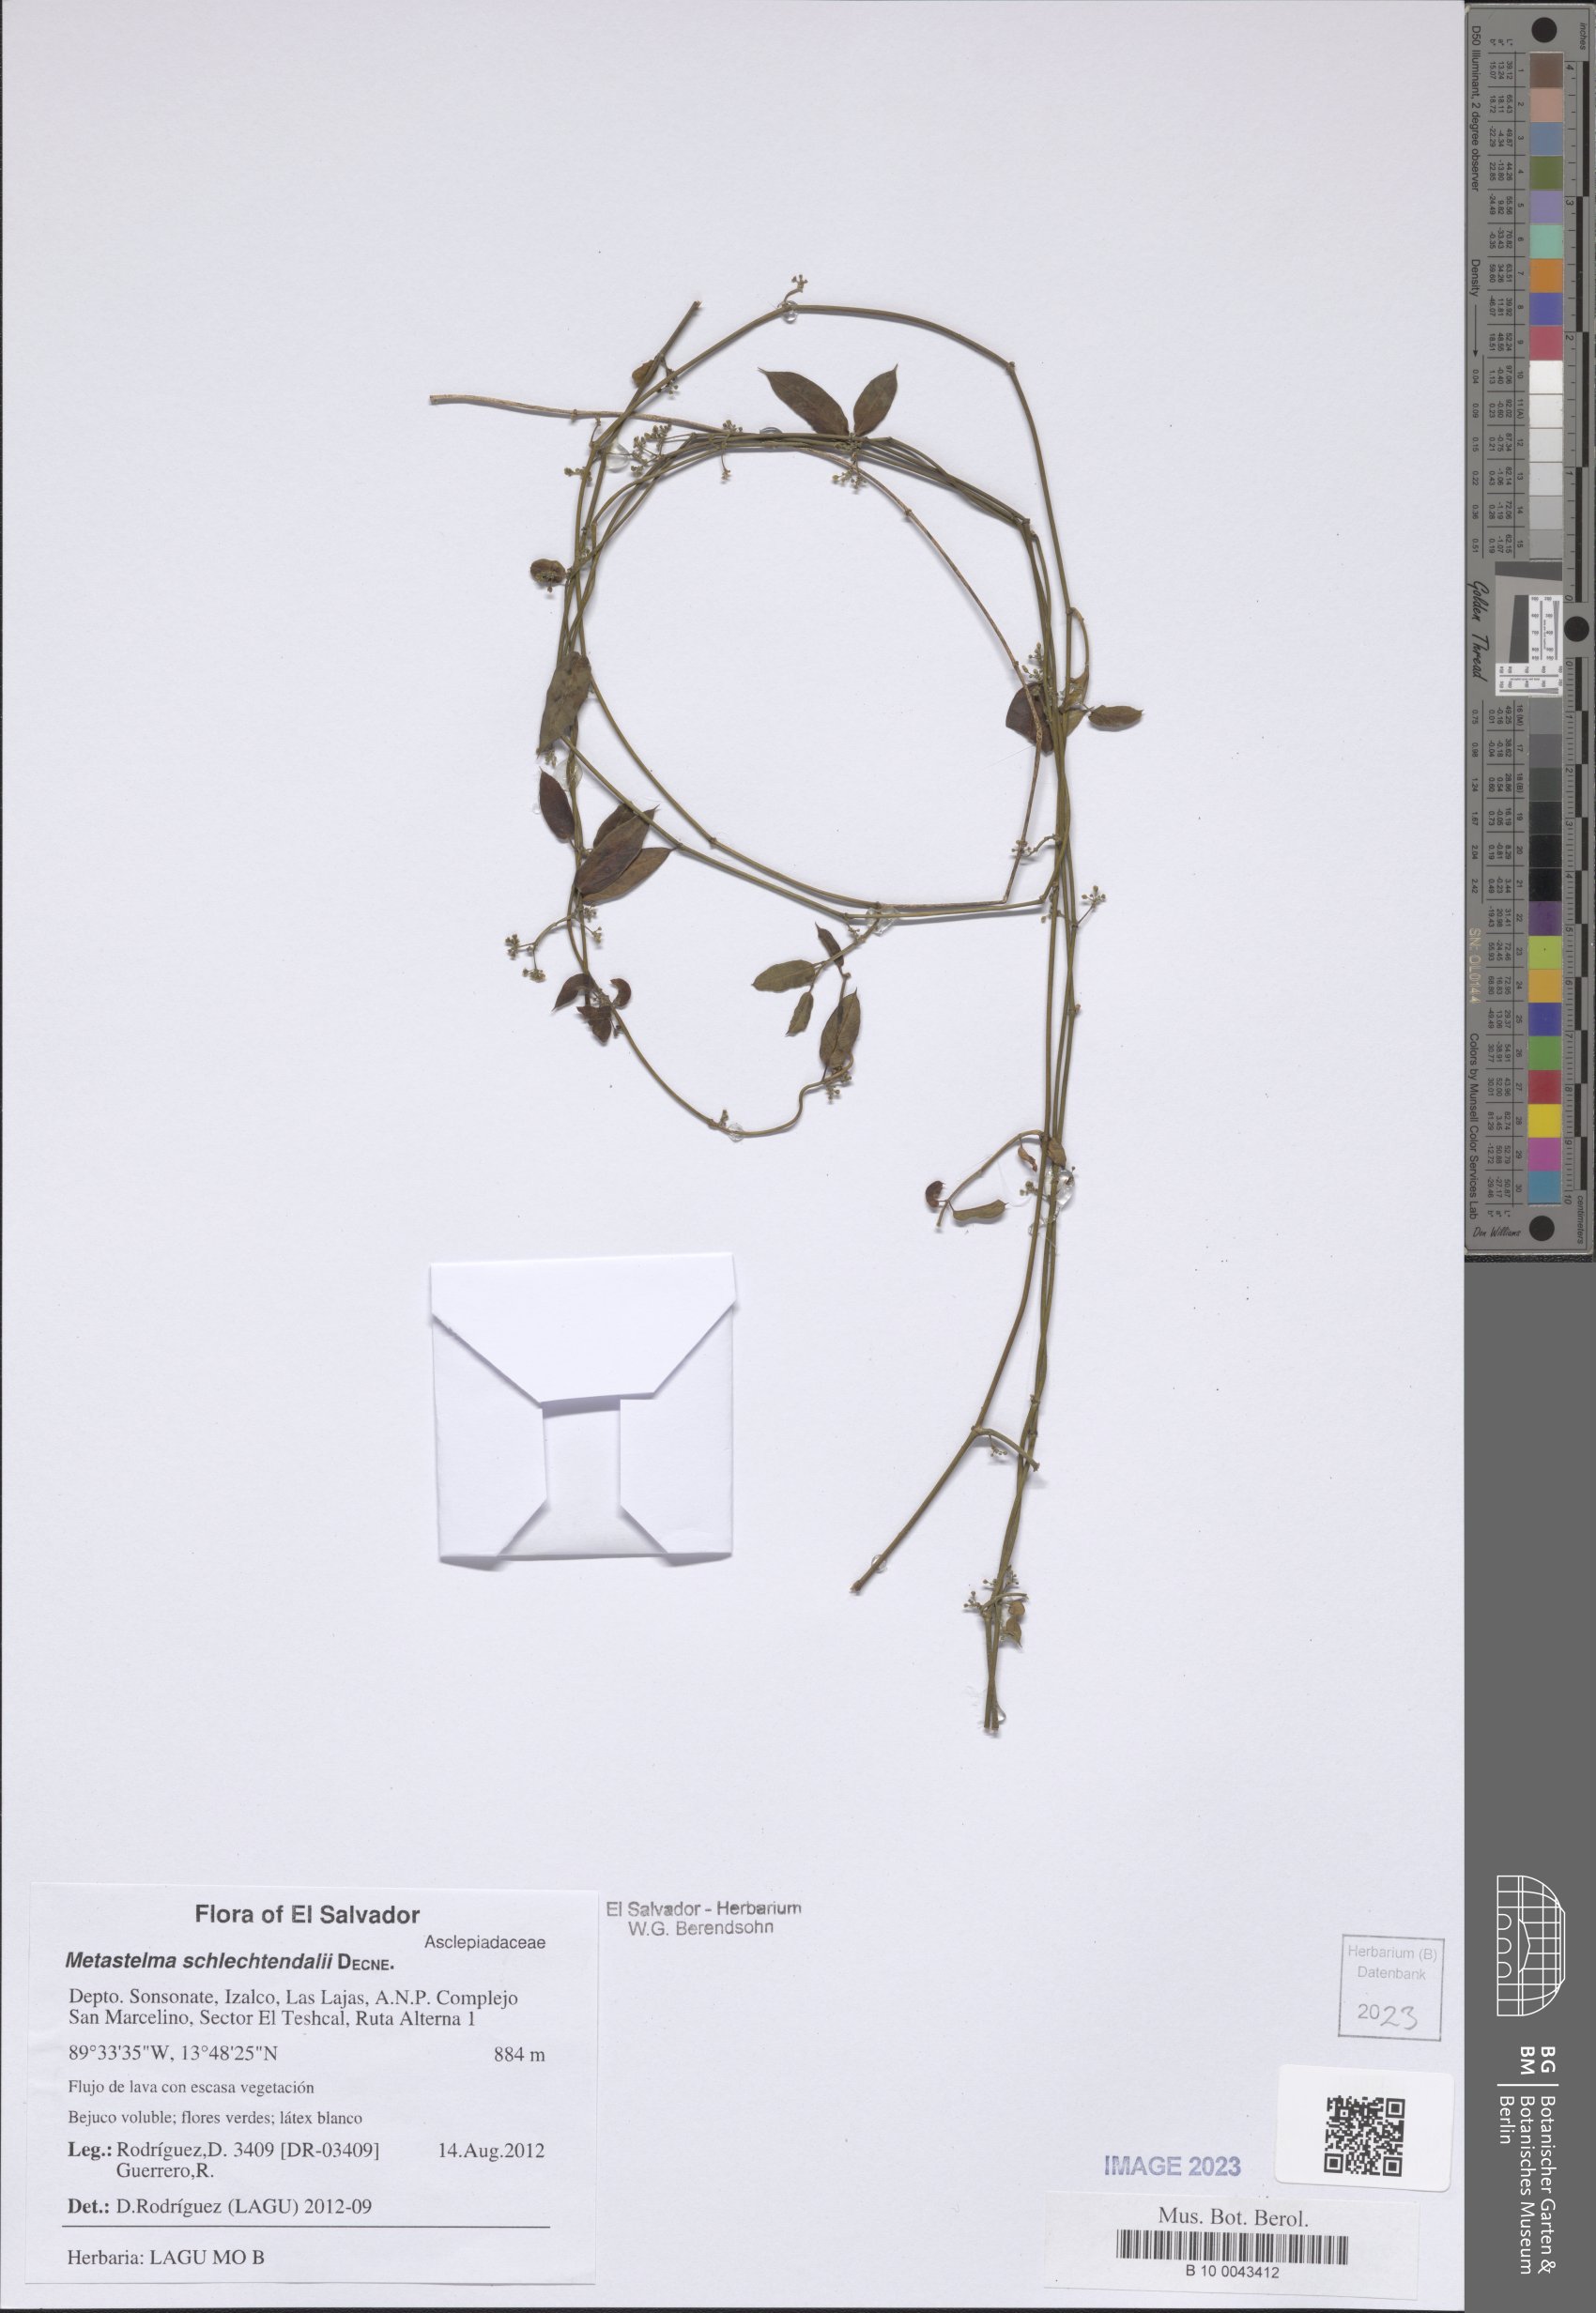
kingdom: Plantae
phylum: Tracheophyta
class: Magnoliopsida
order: Gentianales
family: Apocynaceae
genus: Metastelma
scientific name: Metastelma schlechtendalii
